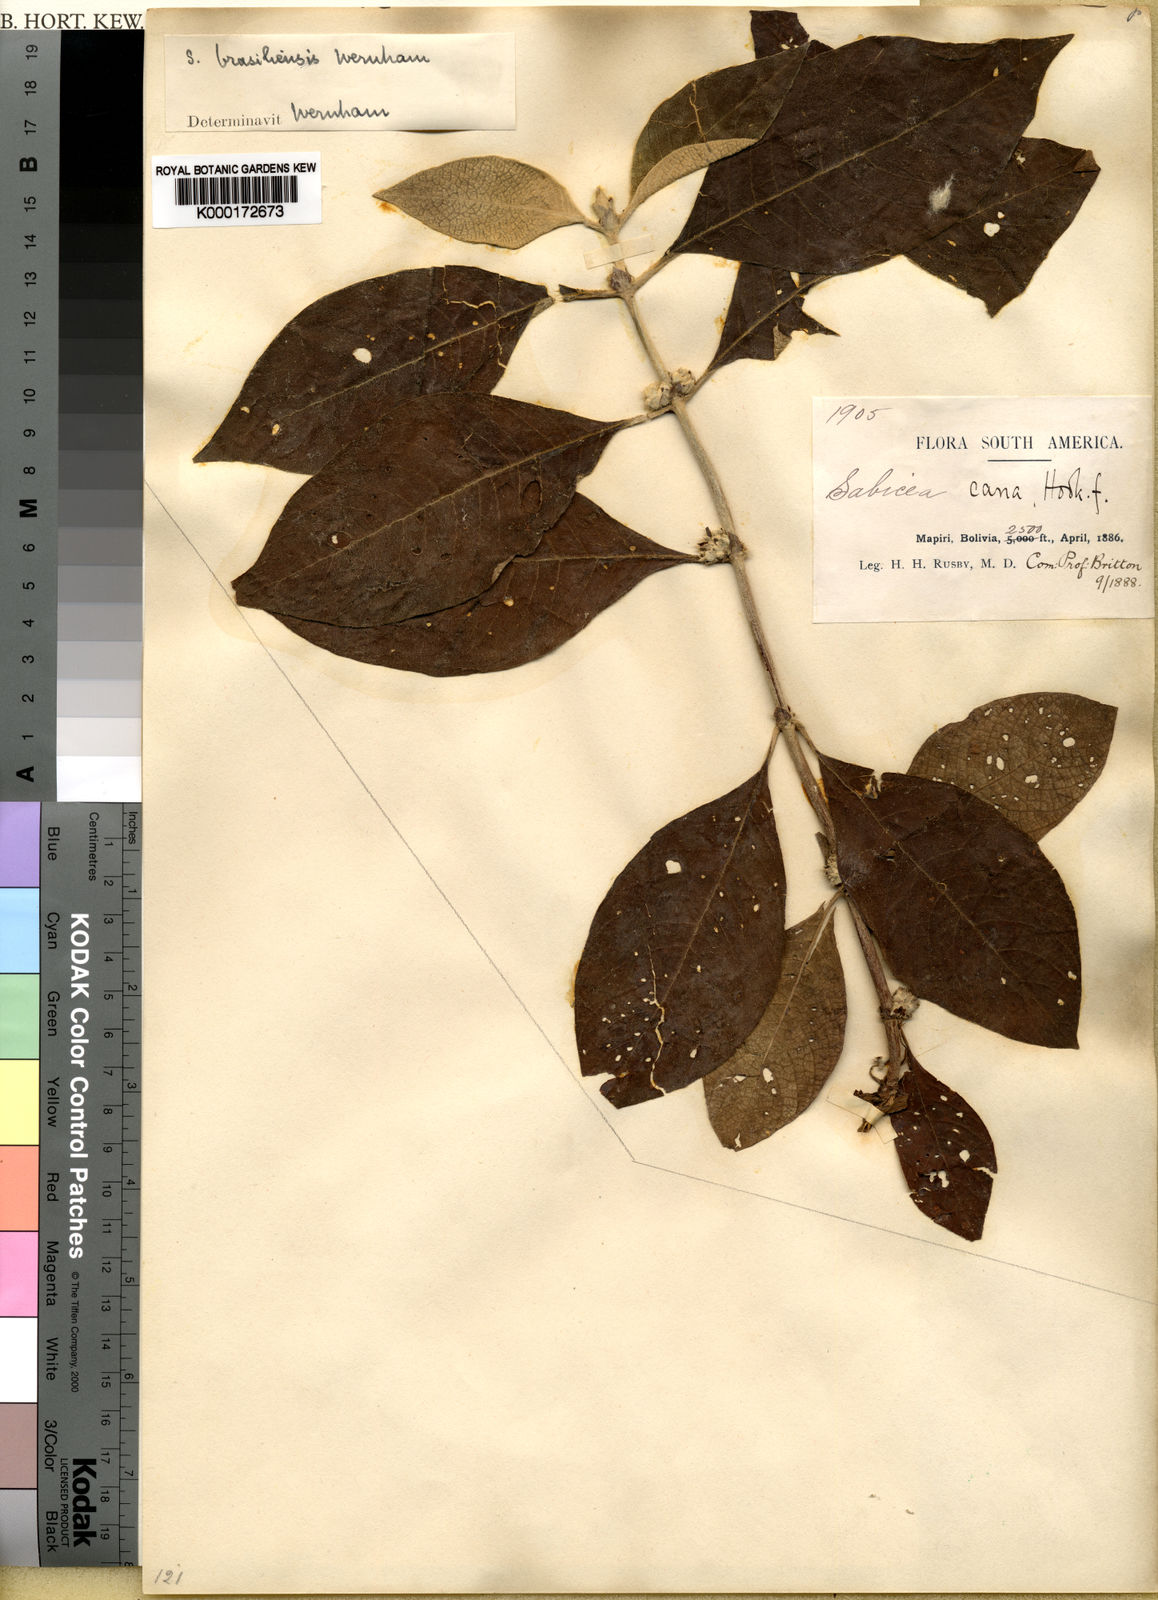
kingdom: Plantae
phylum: Tracheophyta
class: Magnoliopsida
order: Gentianales
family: Rubiaceae
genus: Sabicea
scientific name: Sabicea brasiliensis
